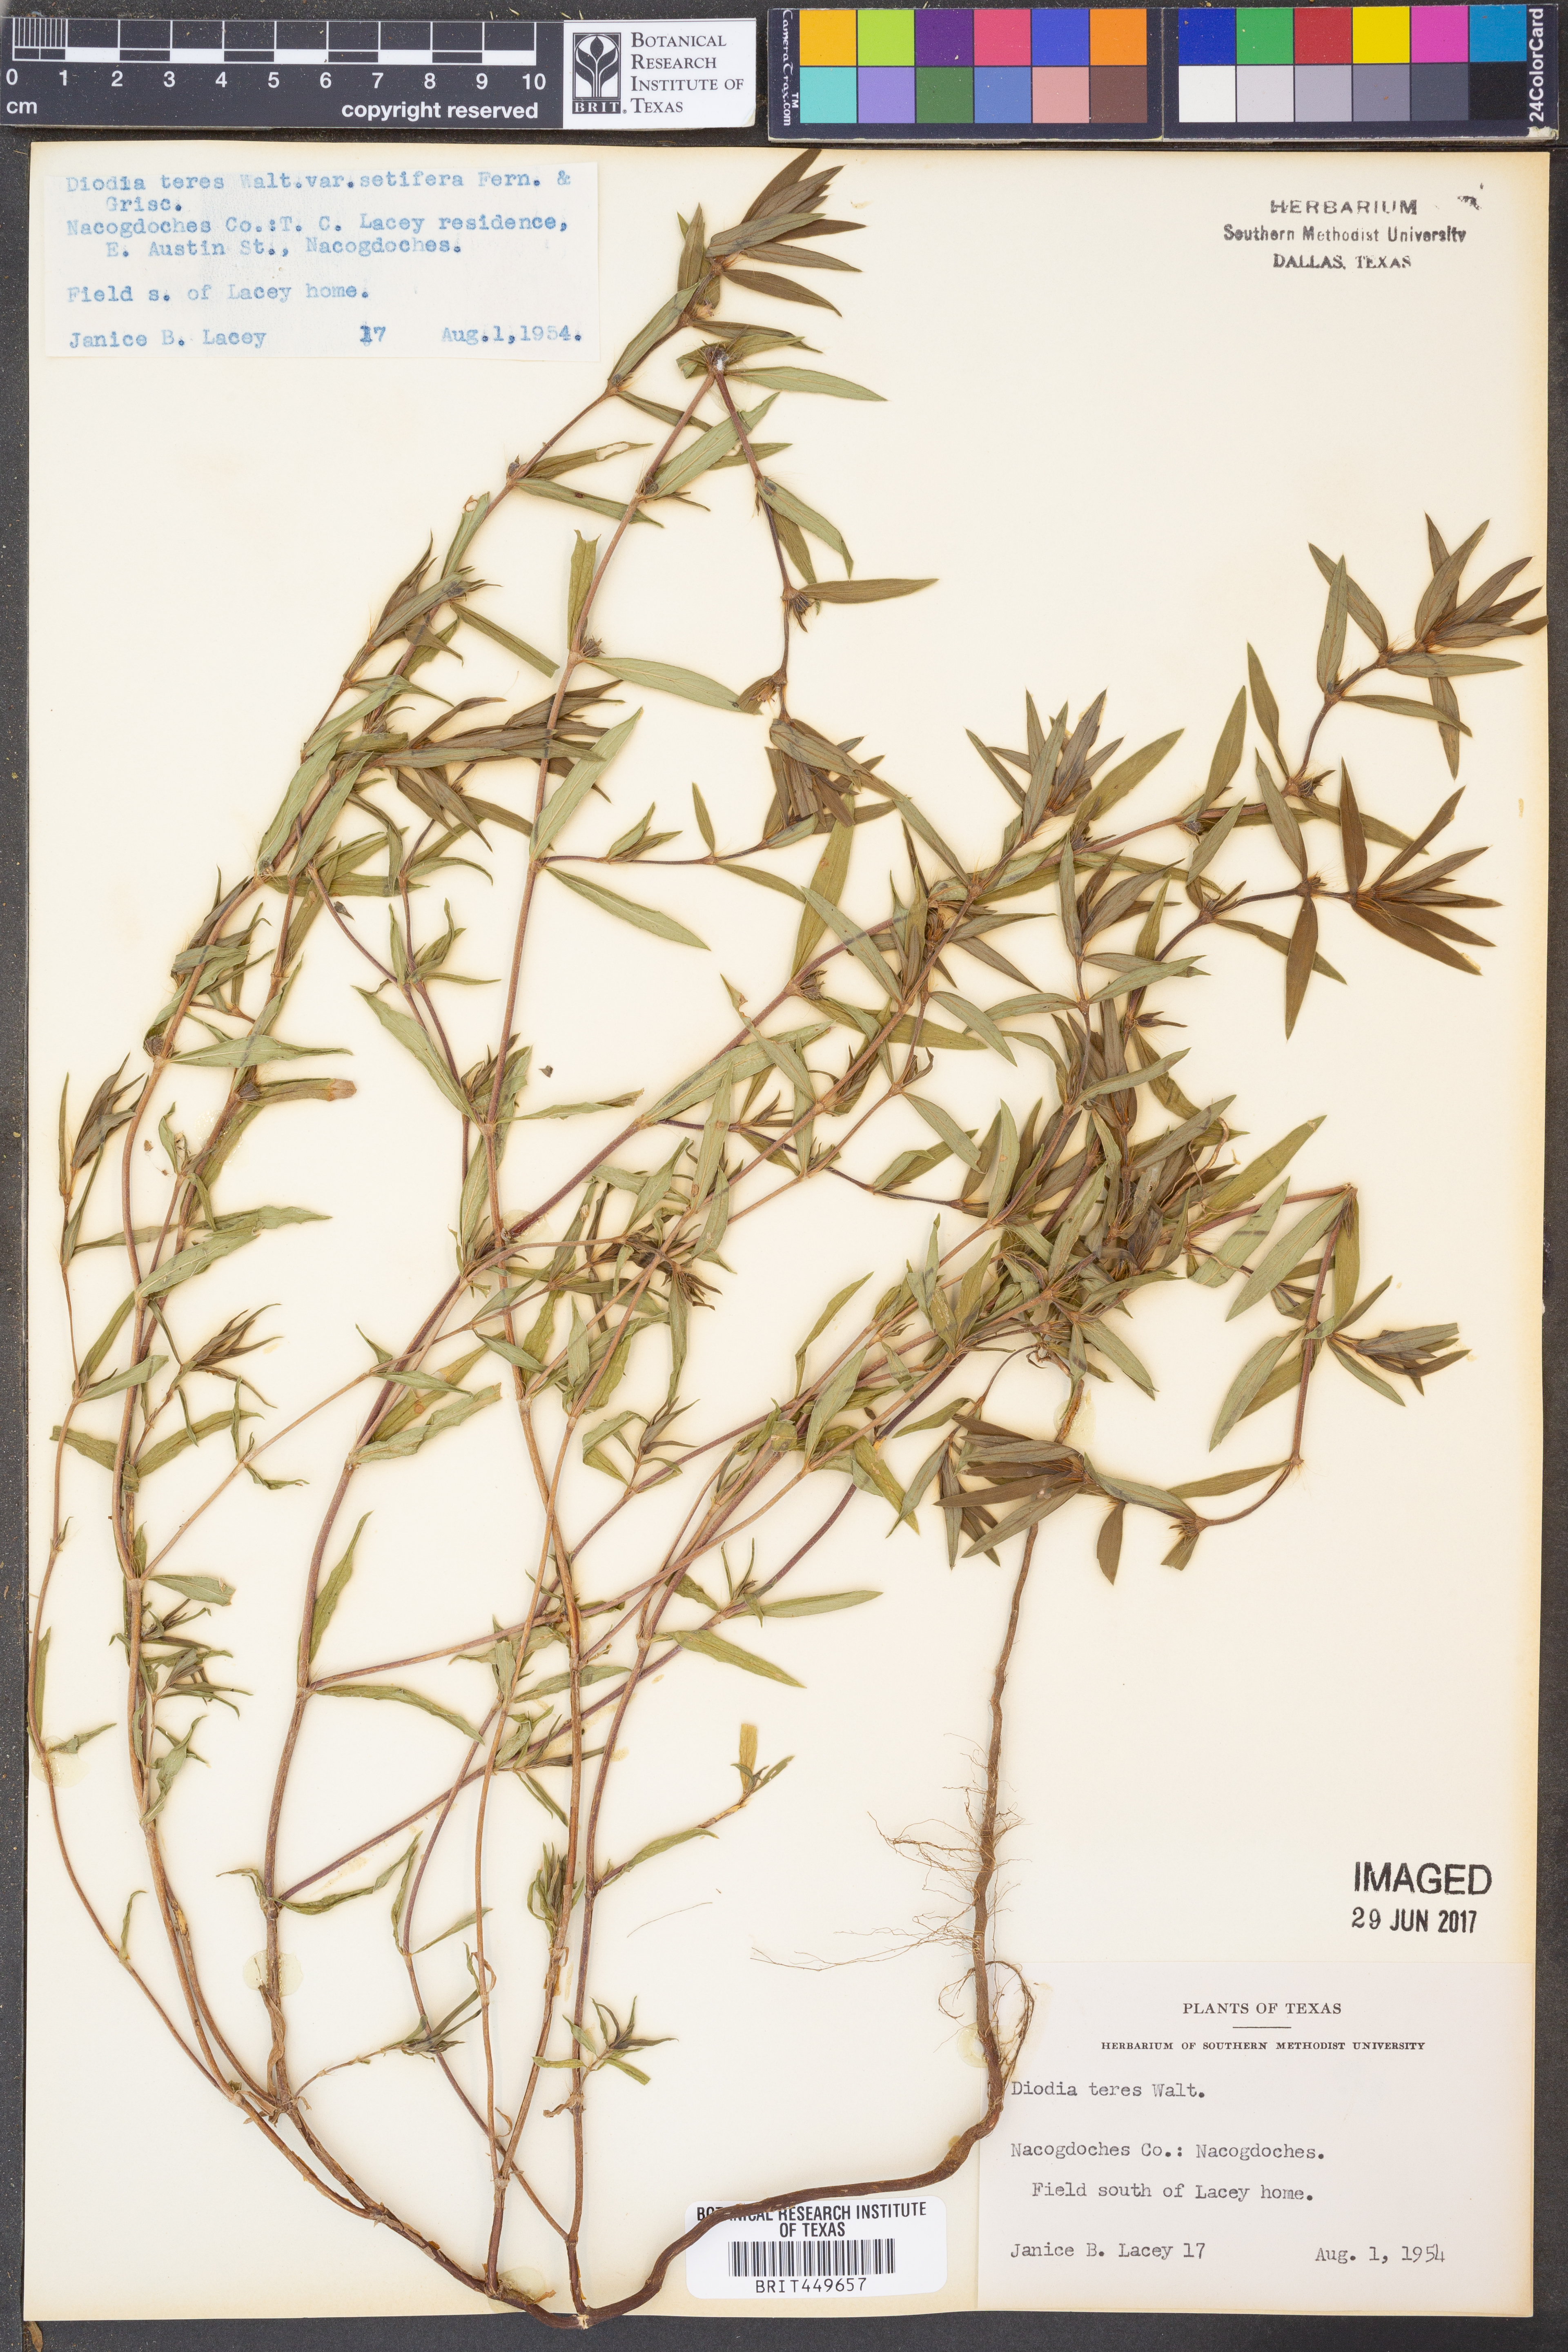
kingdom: Plantae
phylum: Tracheophyta
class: Magnoliopsida
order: Gentianales
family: Rubiaceae
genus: Hexasepalum
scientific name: Hexasepalum teres
